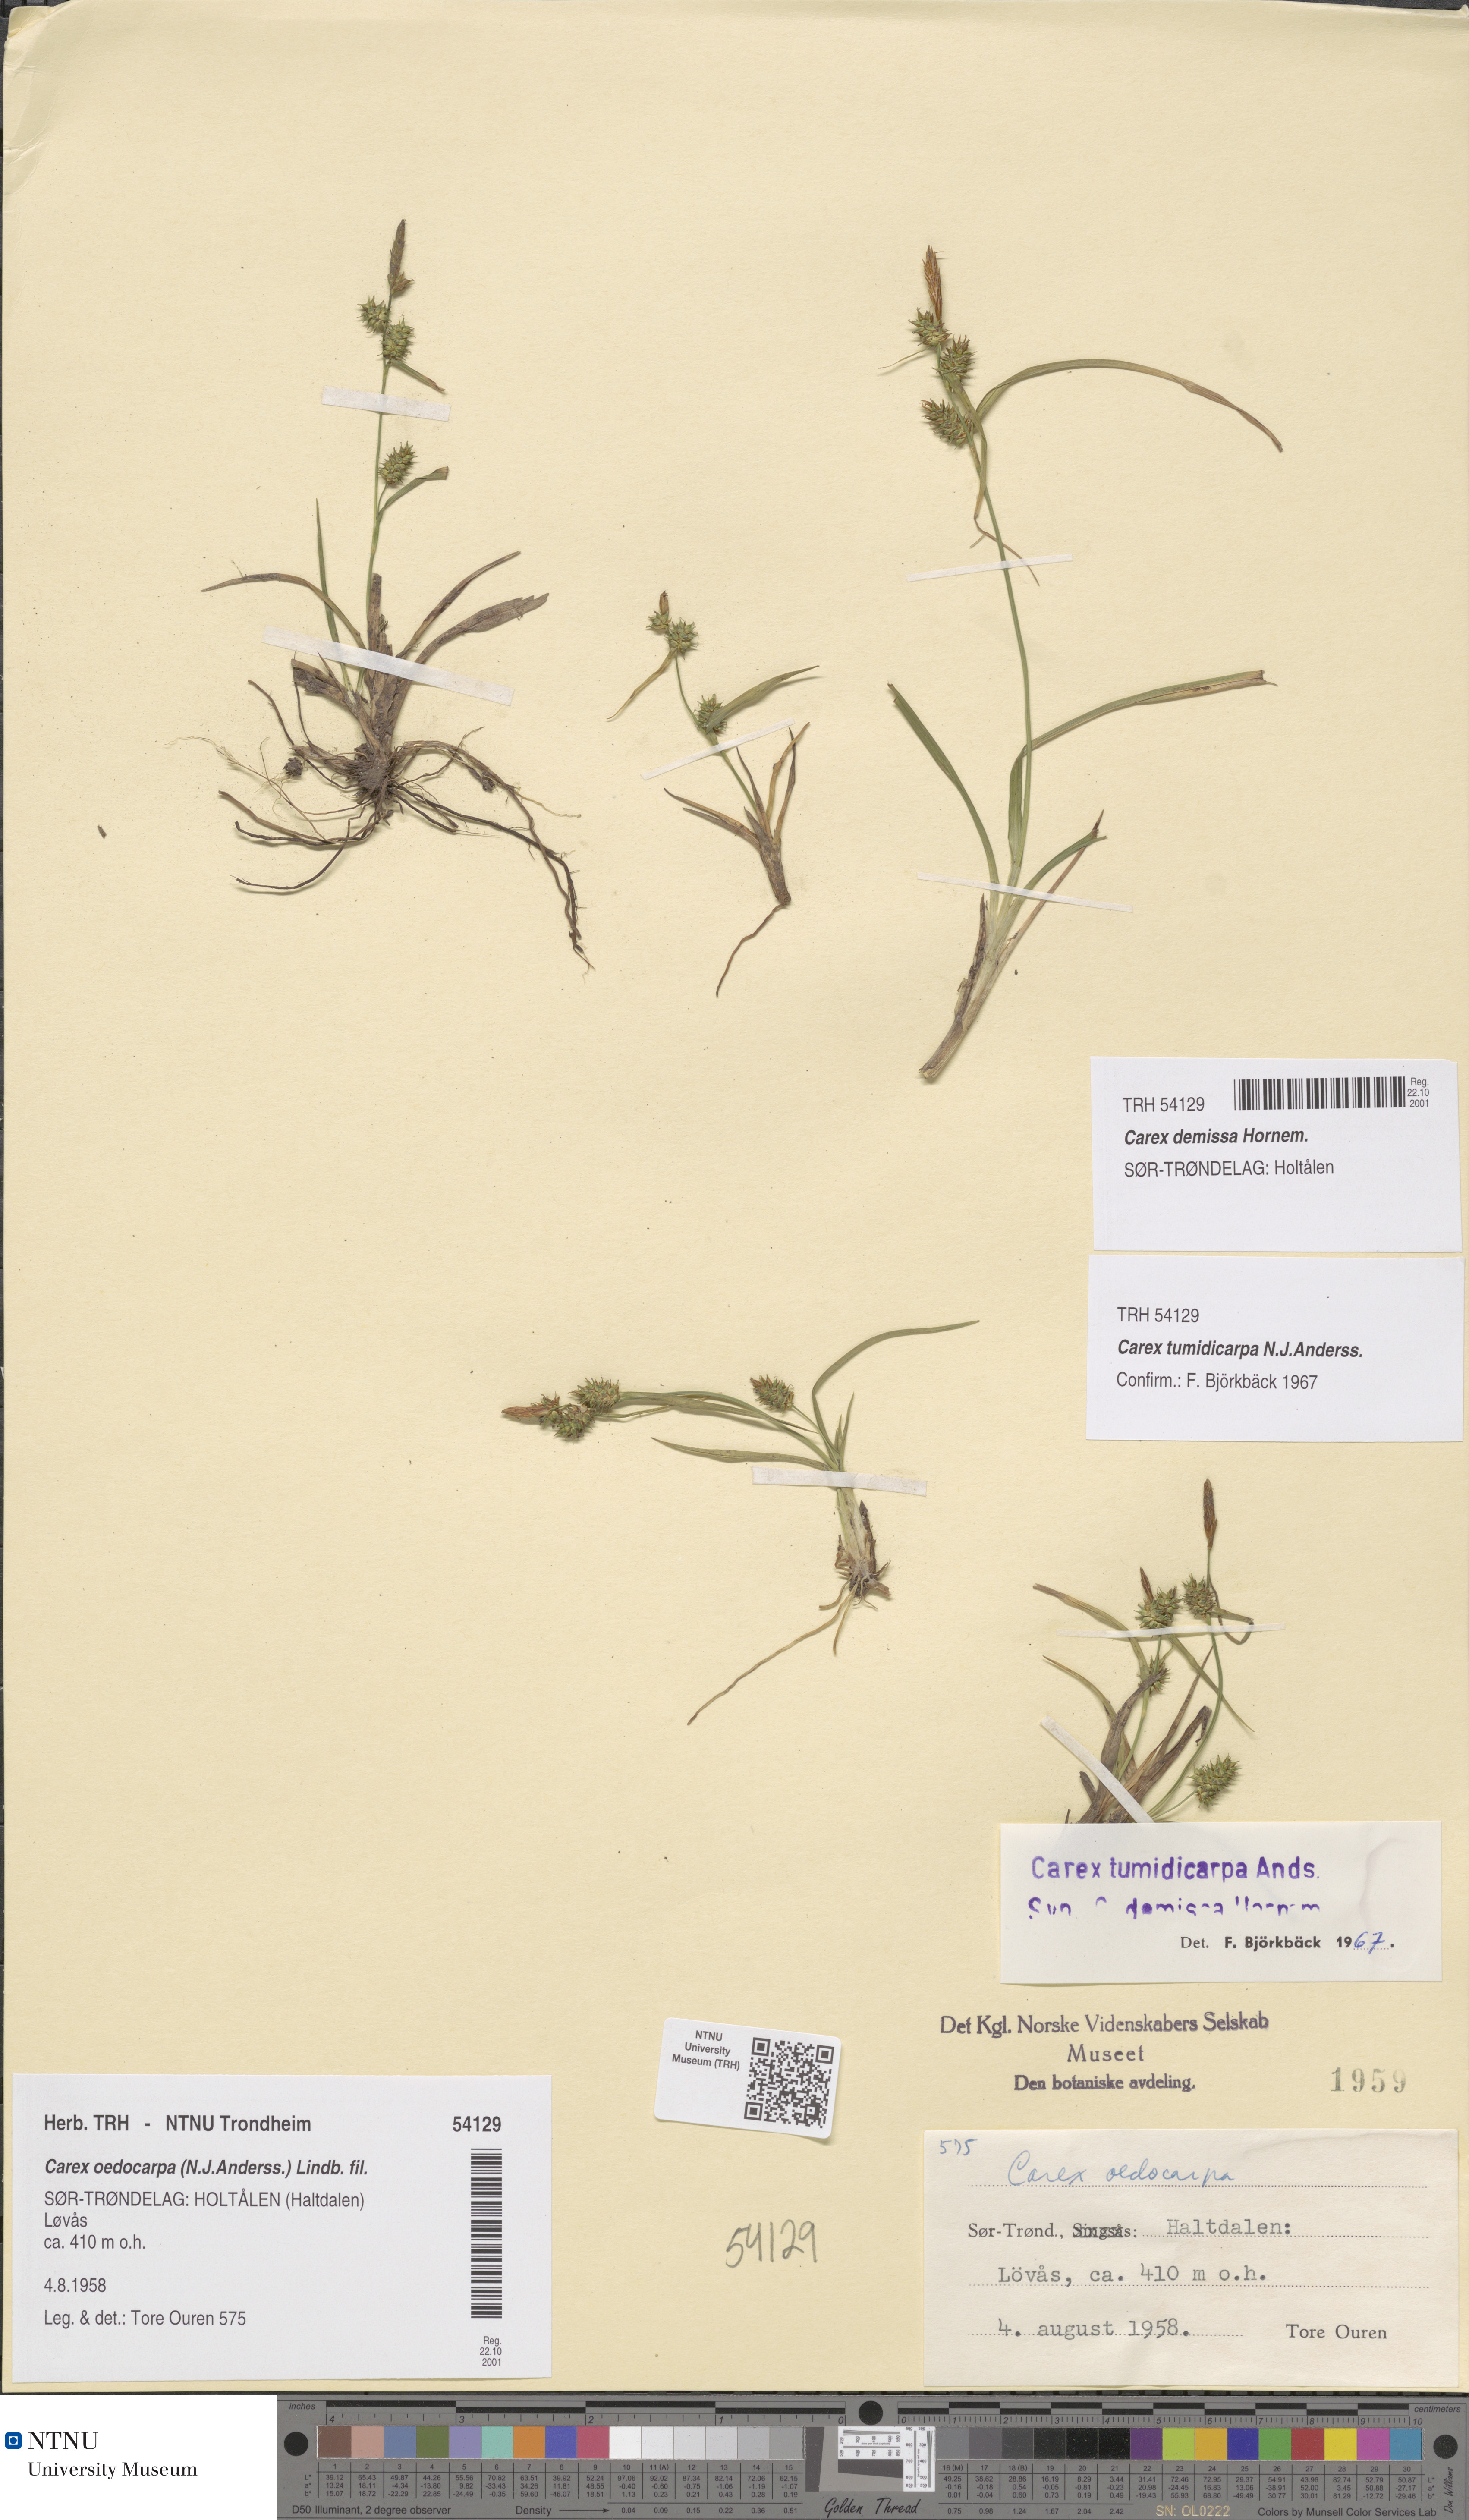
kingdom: Plantae
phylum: Tracheophyta
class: Liliopsida
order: Poales
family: Cyperaceae
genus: Carex
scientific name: Carex demissa
